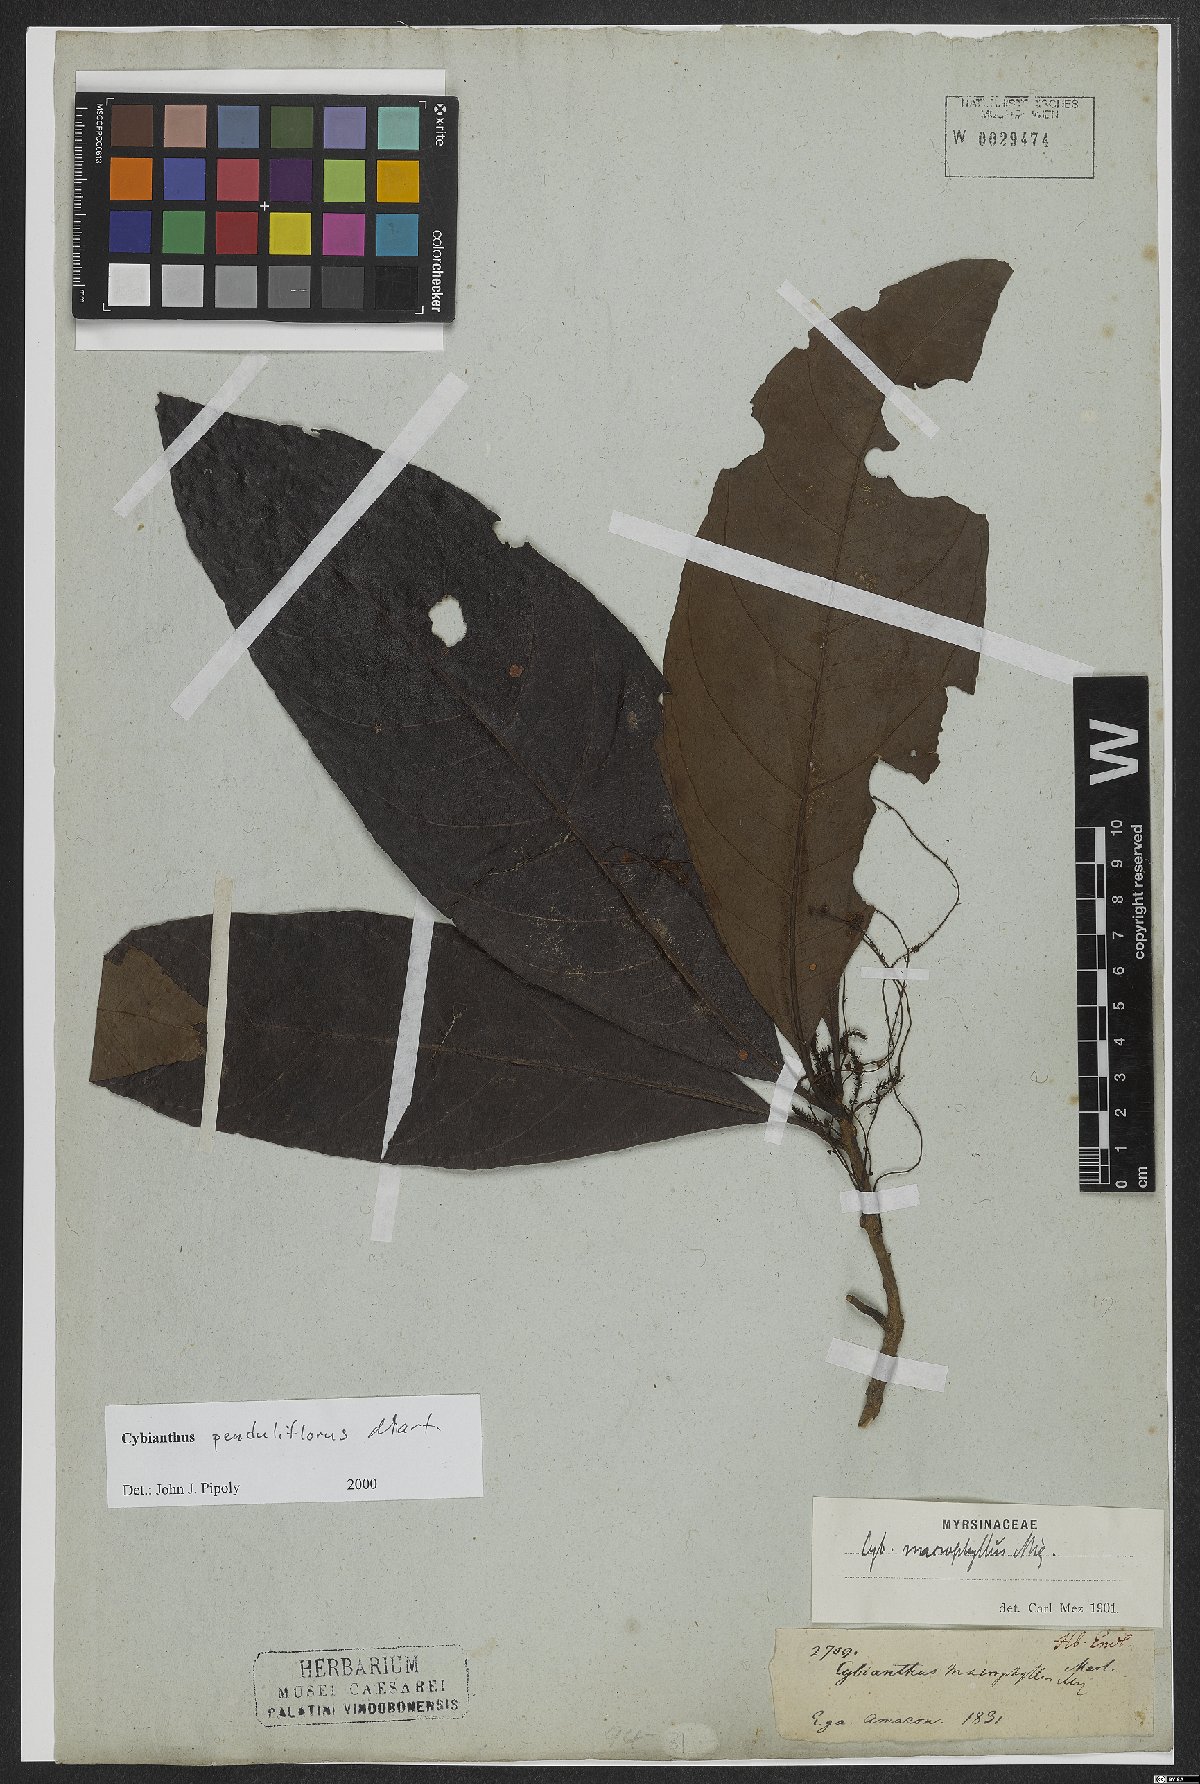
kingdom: Plantae
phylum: Tracheophyta
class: Magnoliopsida
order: Ericales
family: Primulaceae
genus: Cybianthus
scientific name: Cybianthus penduliflorus
